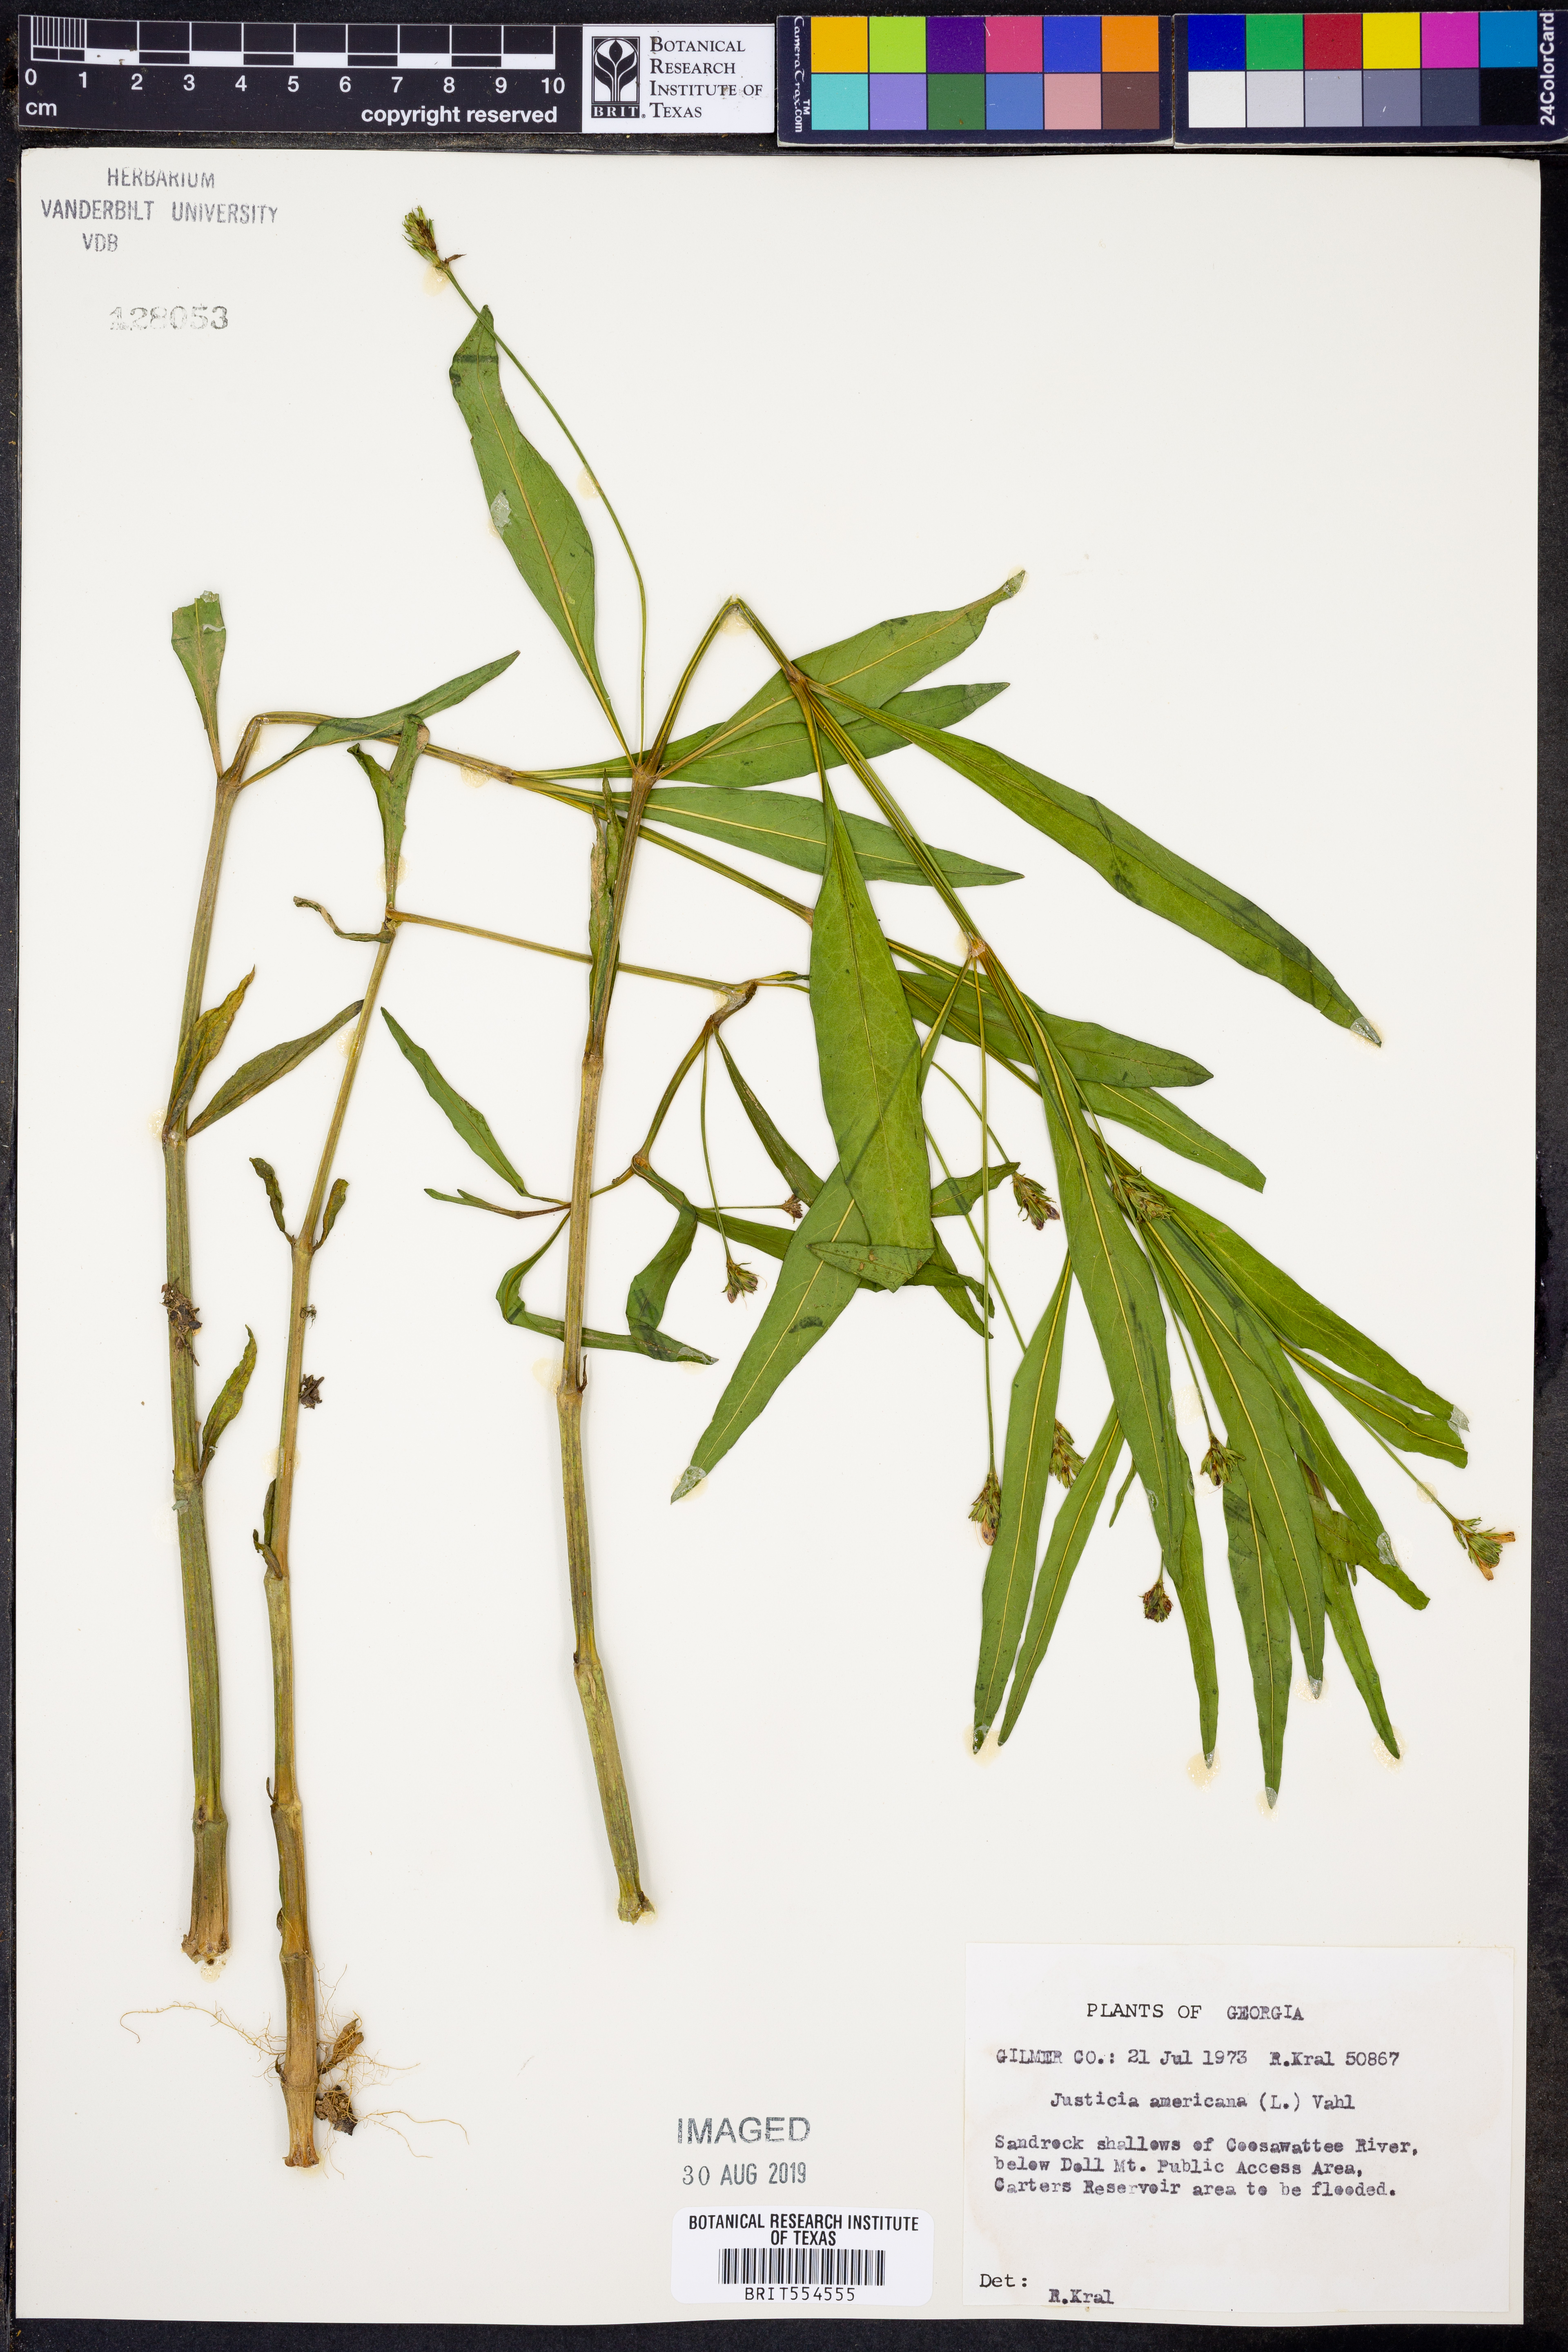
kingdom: Plantae
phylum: Tracheophyta
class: Magnoliopsida
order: Lamiales
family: Acanthaceae
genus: Dianthera
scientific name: Dianthera americana
